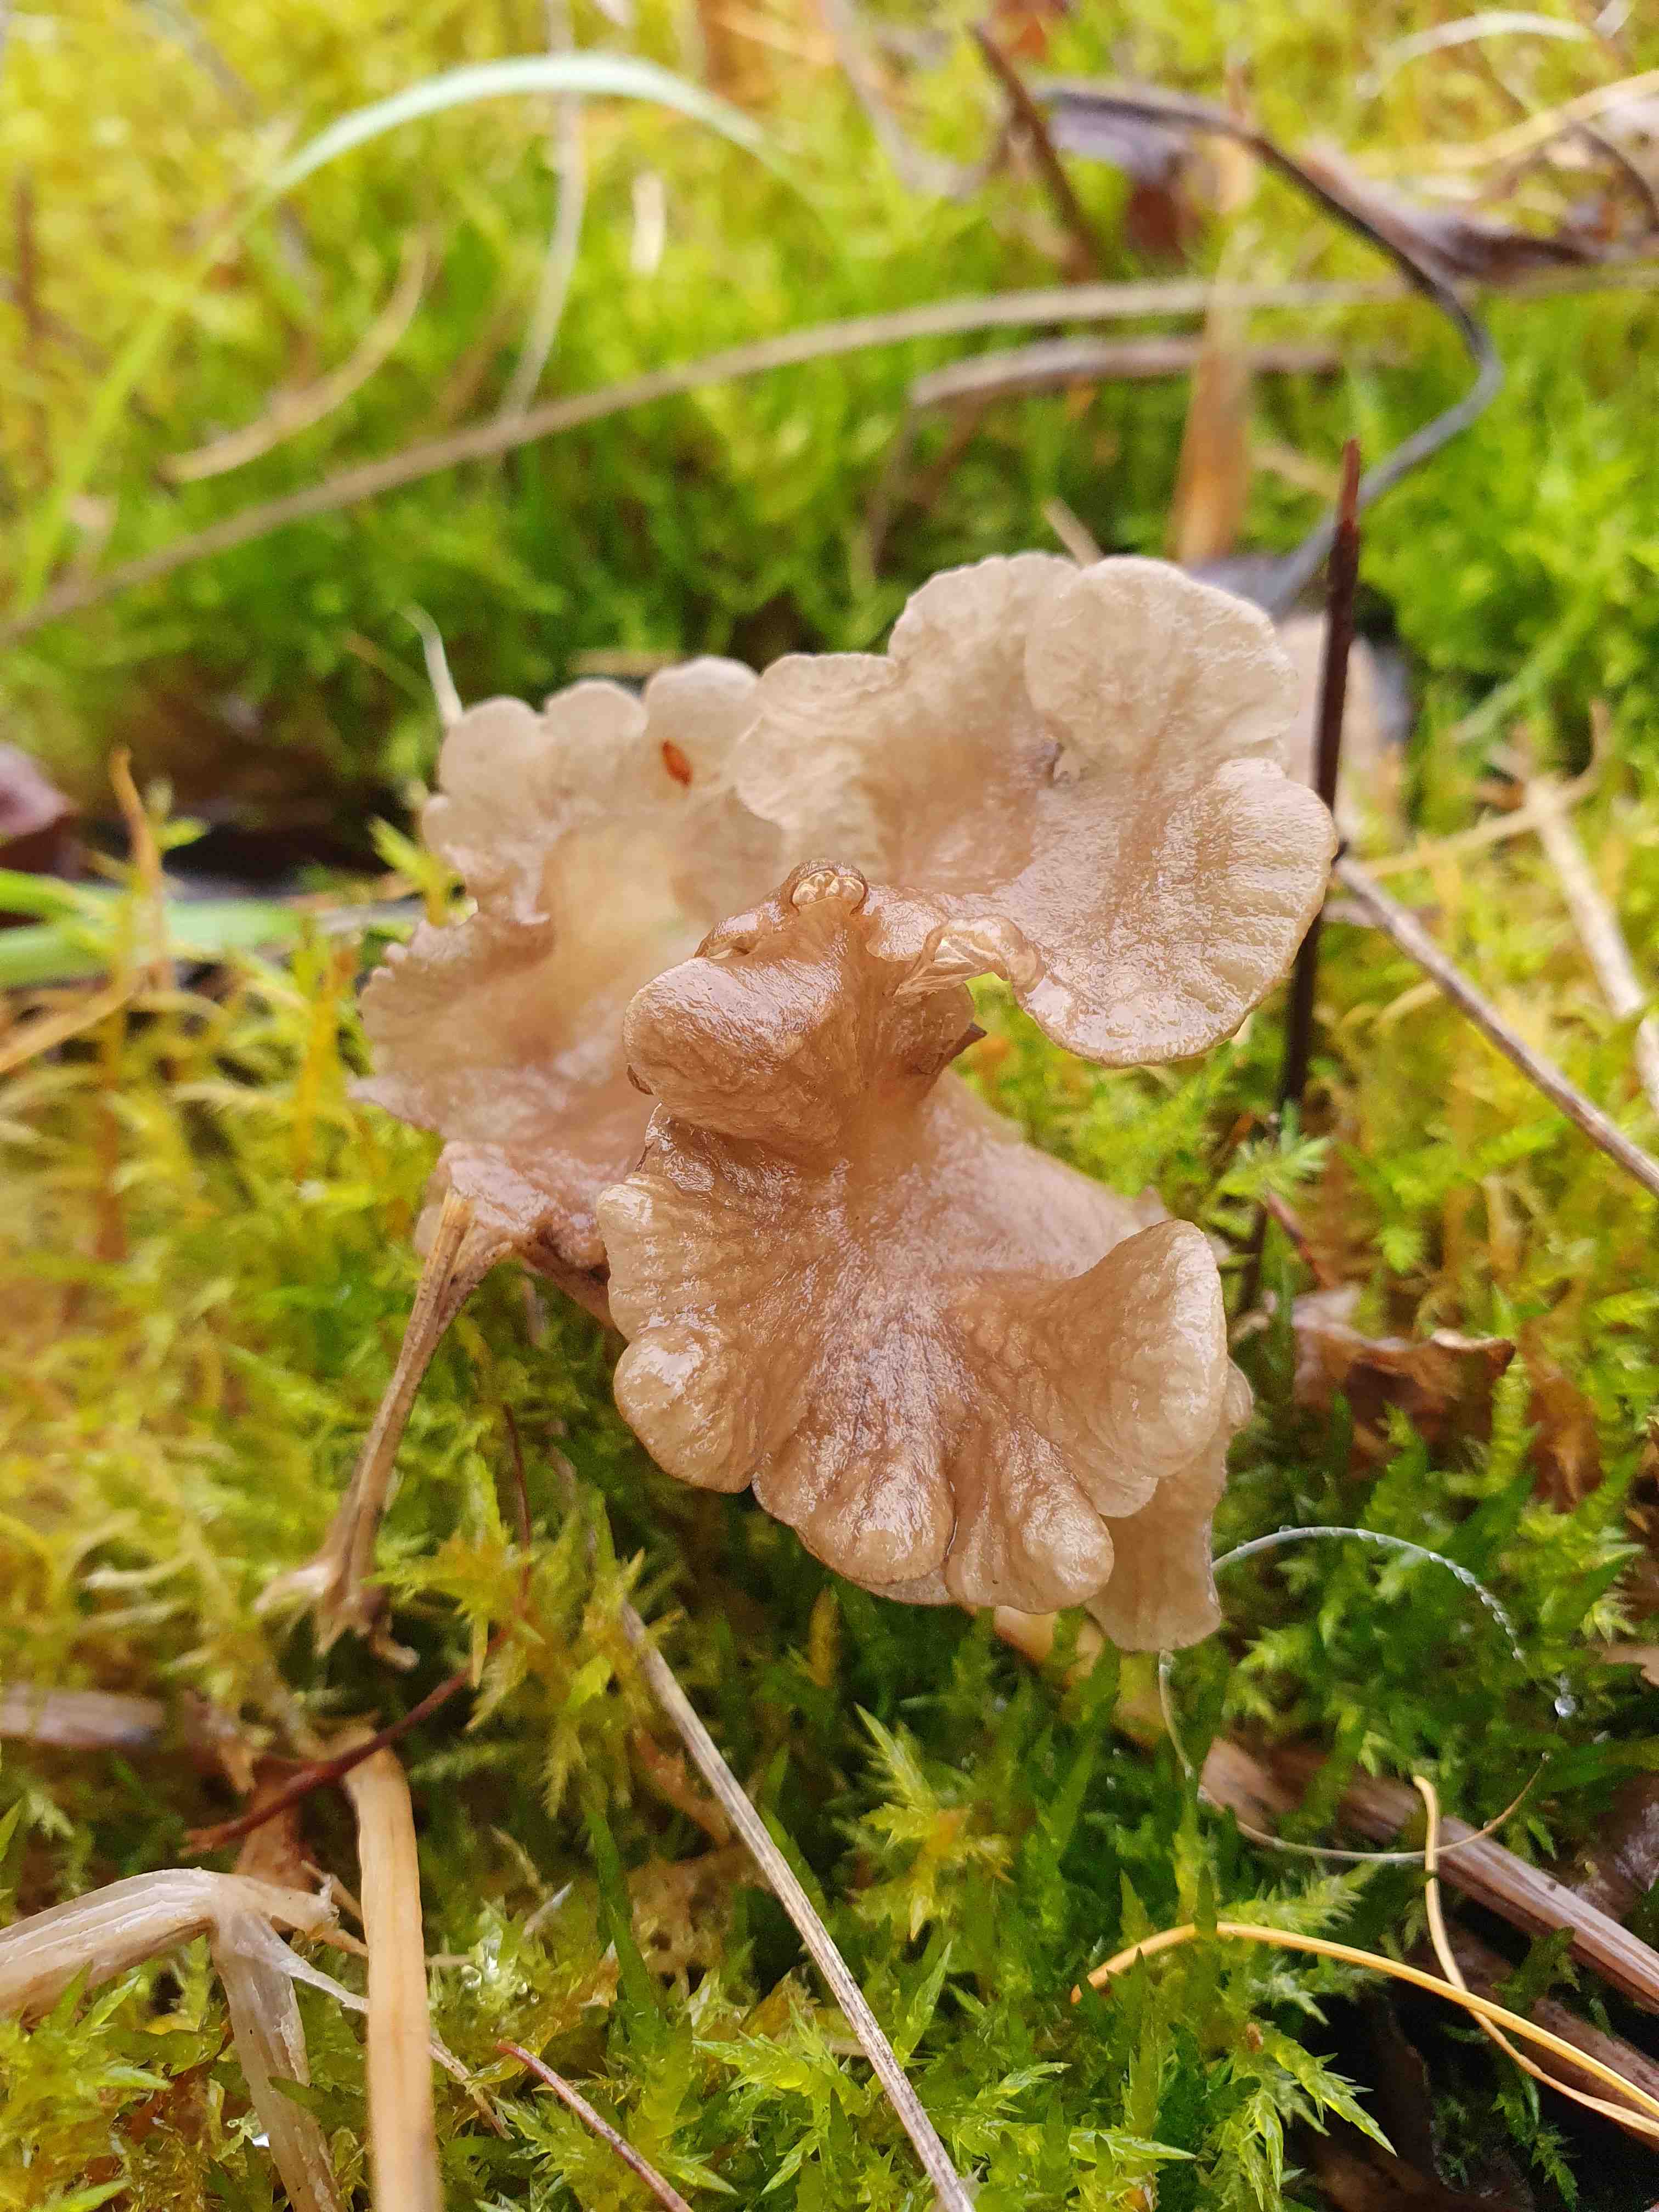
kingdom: Fungi
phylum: Basidiomycota
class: Agaricomycetes
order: Agaricales
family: Hygrophoraceae
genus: Arrhenia
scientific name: Arrhenia lobata
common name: siddende fontænehat
